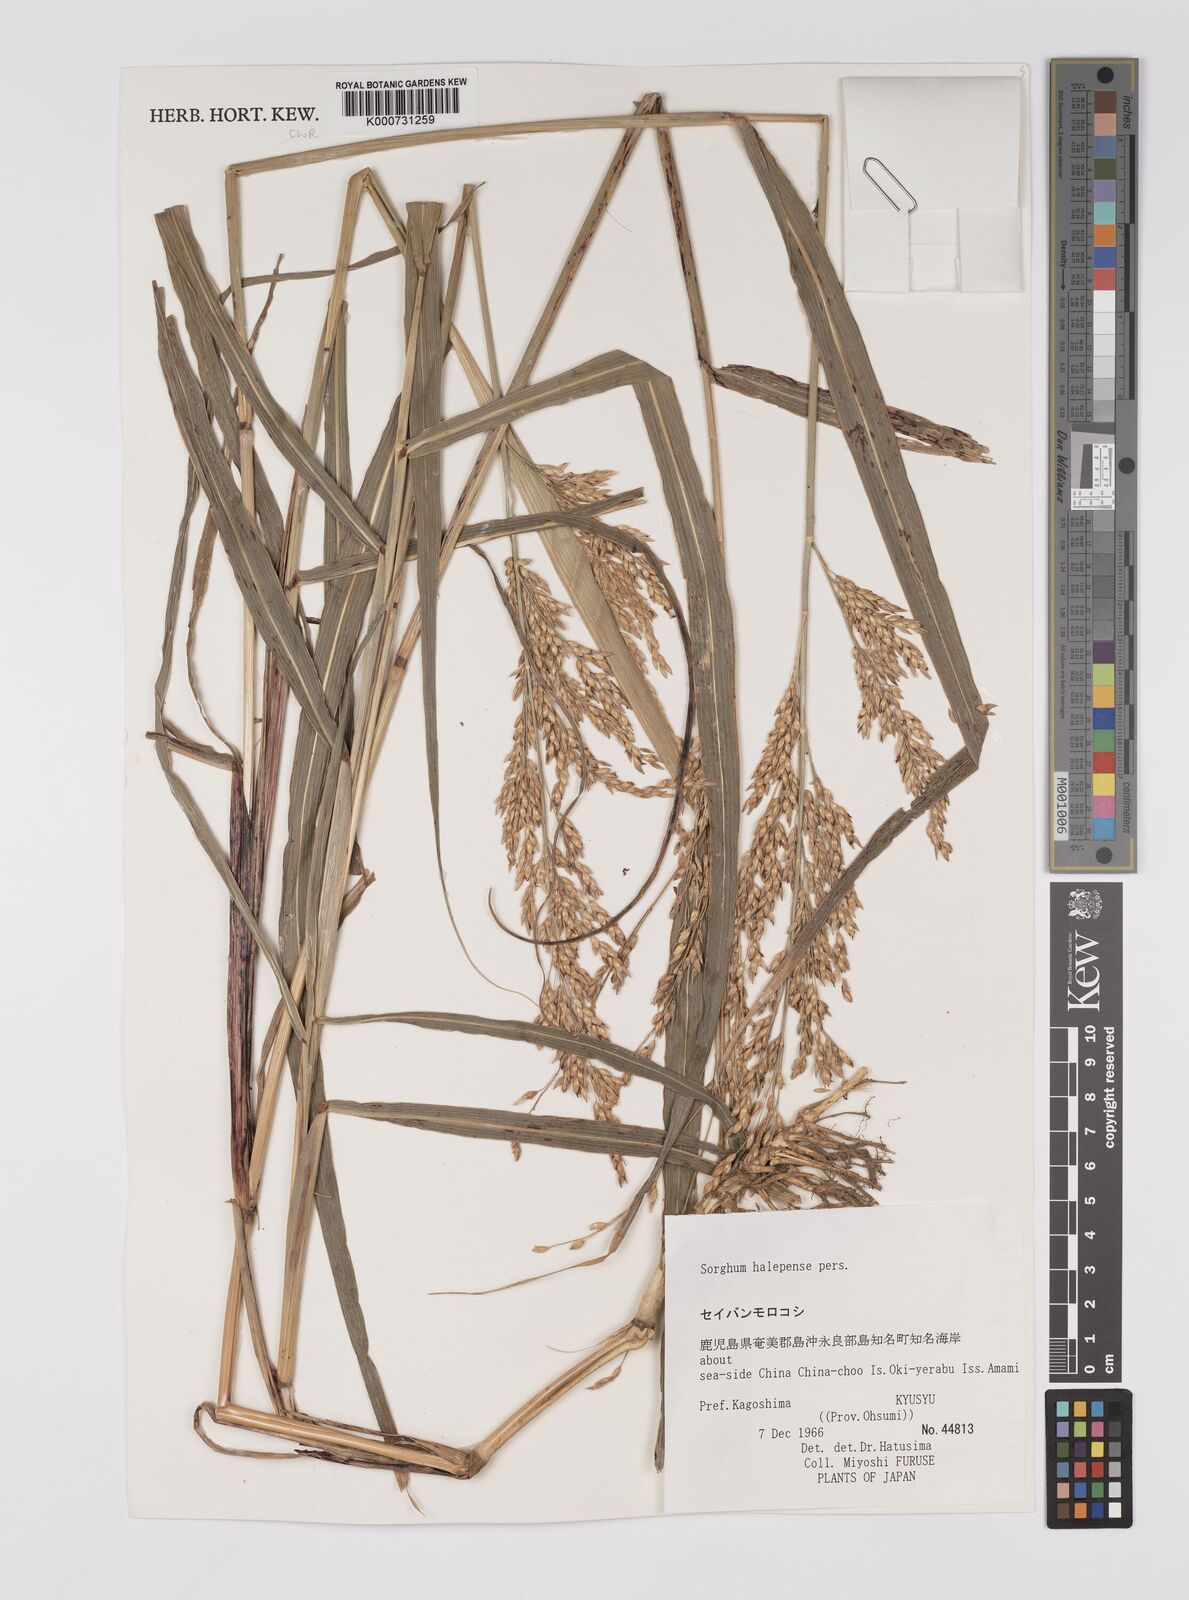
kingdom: Plantae
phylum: Tracheophyta
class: Liliopsida
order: Poales
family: Poaceae
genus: Sorghum
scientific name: Sorghum halepense
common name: Johnson-grass
